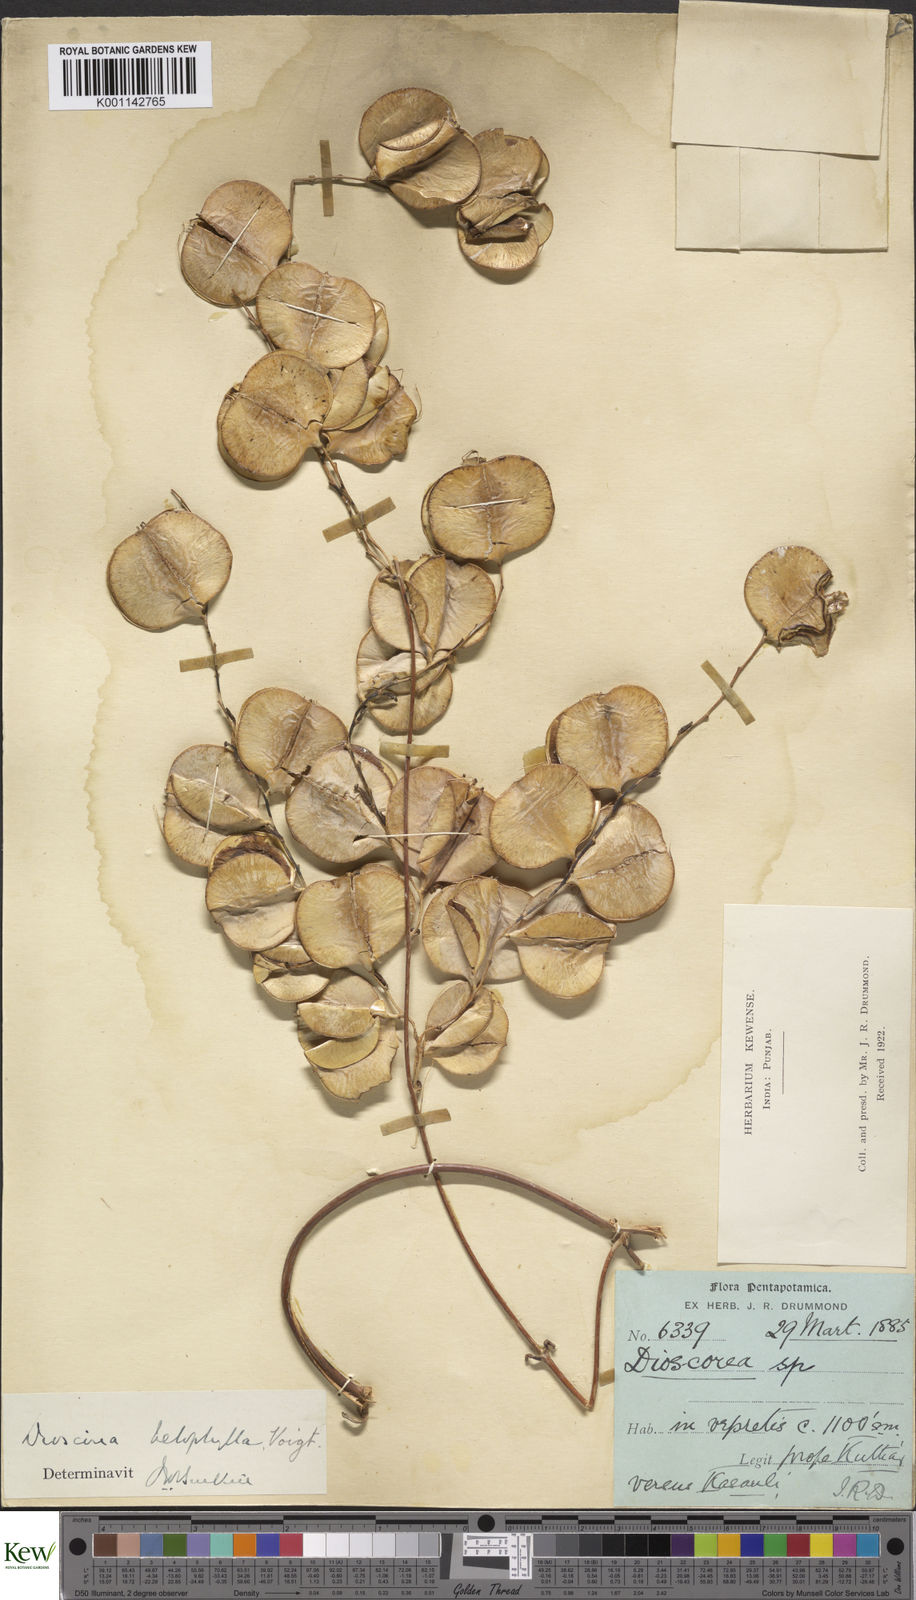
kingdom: Plantae
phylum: Tracheophyta
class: Liliopsida
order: Dioscoreales
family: Dioscoreaceae
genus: Dioscorea
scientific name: Dioscorea belophylla
